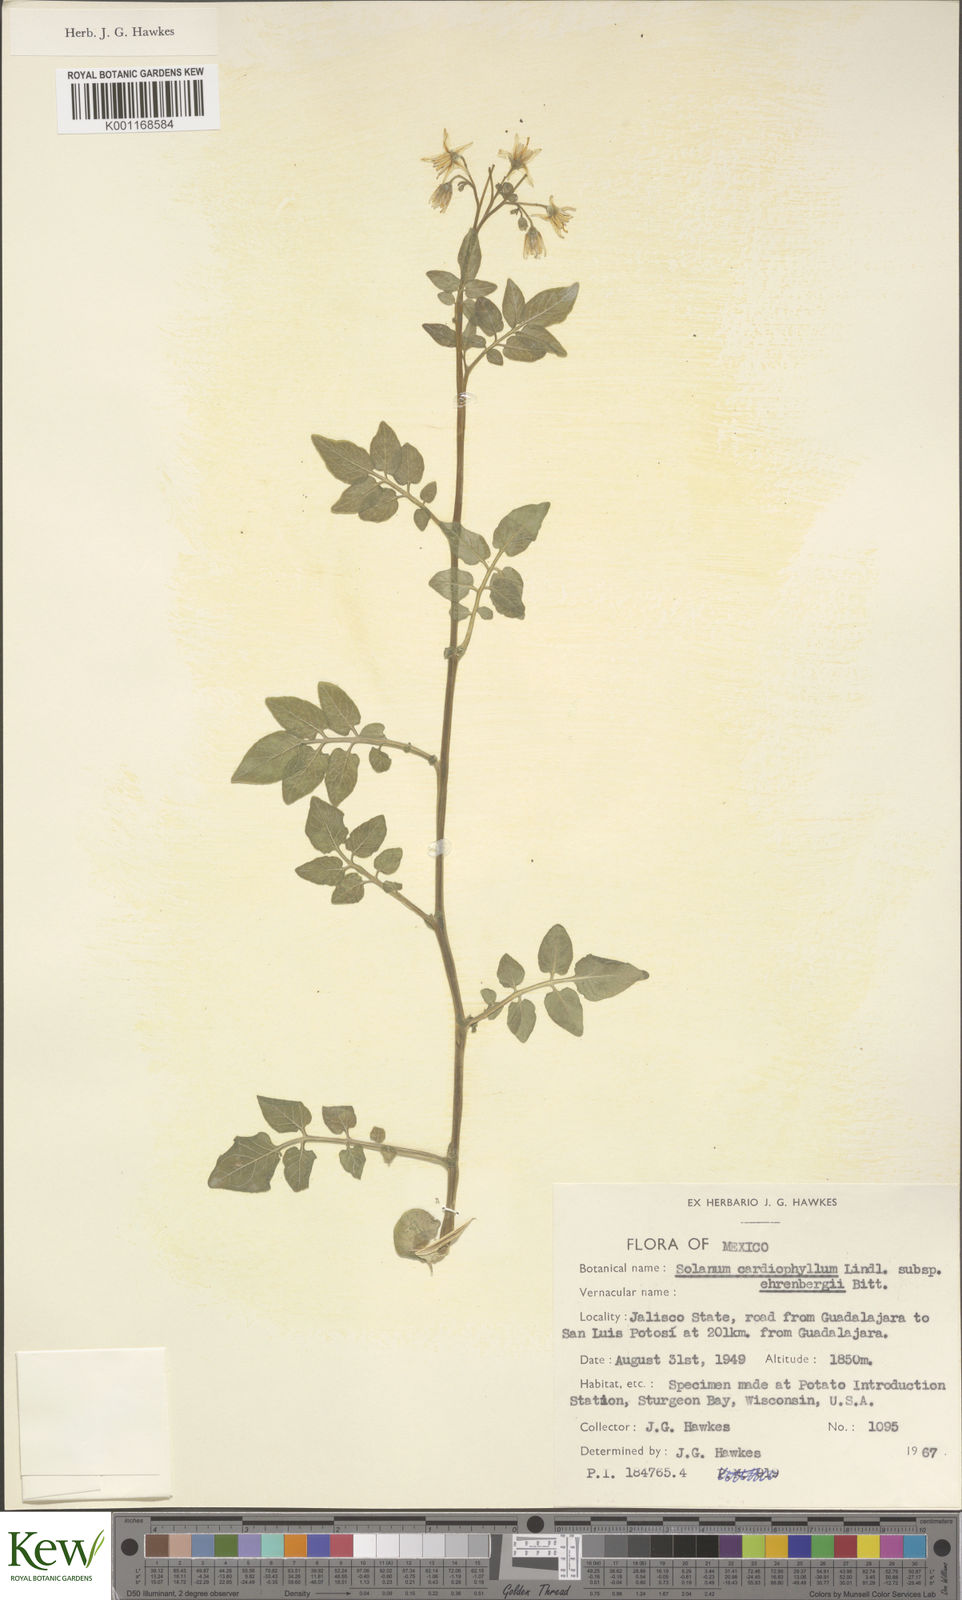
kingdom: Plantae
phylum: Tracheophyta
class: Magnoliopsida
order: Solanales
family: Solanaceae
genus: Solanum
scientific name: Solanum cardiophyllum
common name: Heartleaf horsenettle
